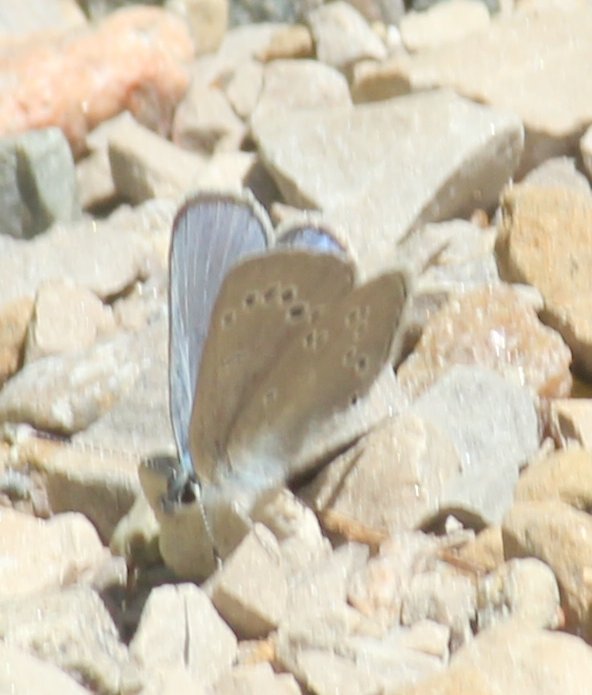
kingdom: Animalia
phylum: Arthropoda
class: Insecta
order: Lepidoptera
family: Lycaenidae
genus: Glaucopsyche
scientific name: Glaucopsyche lygdamus
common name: Silvery Blue
